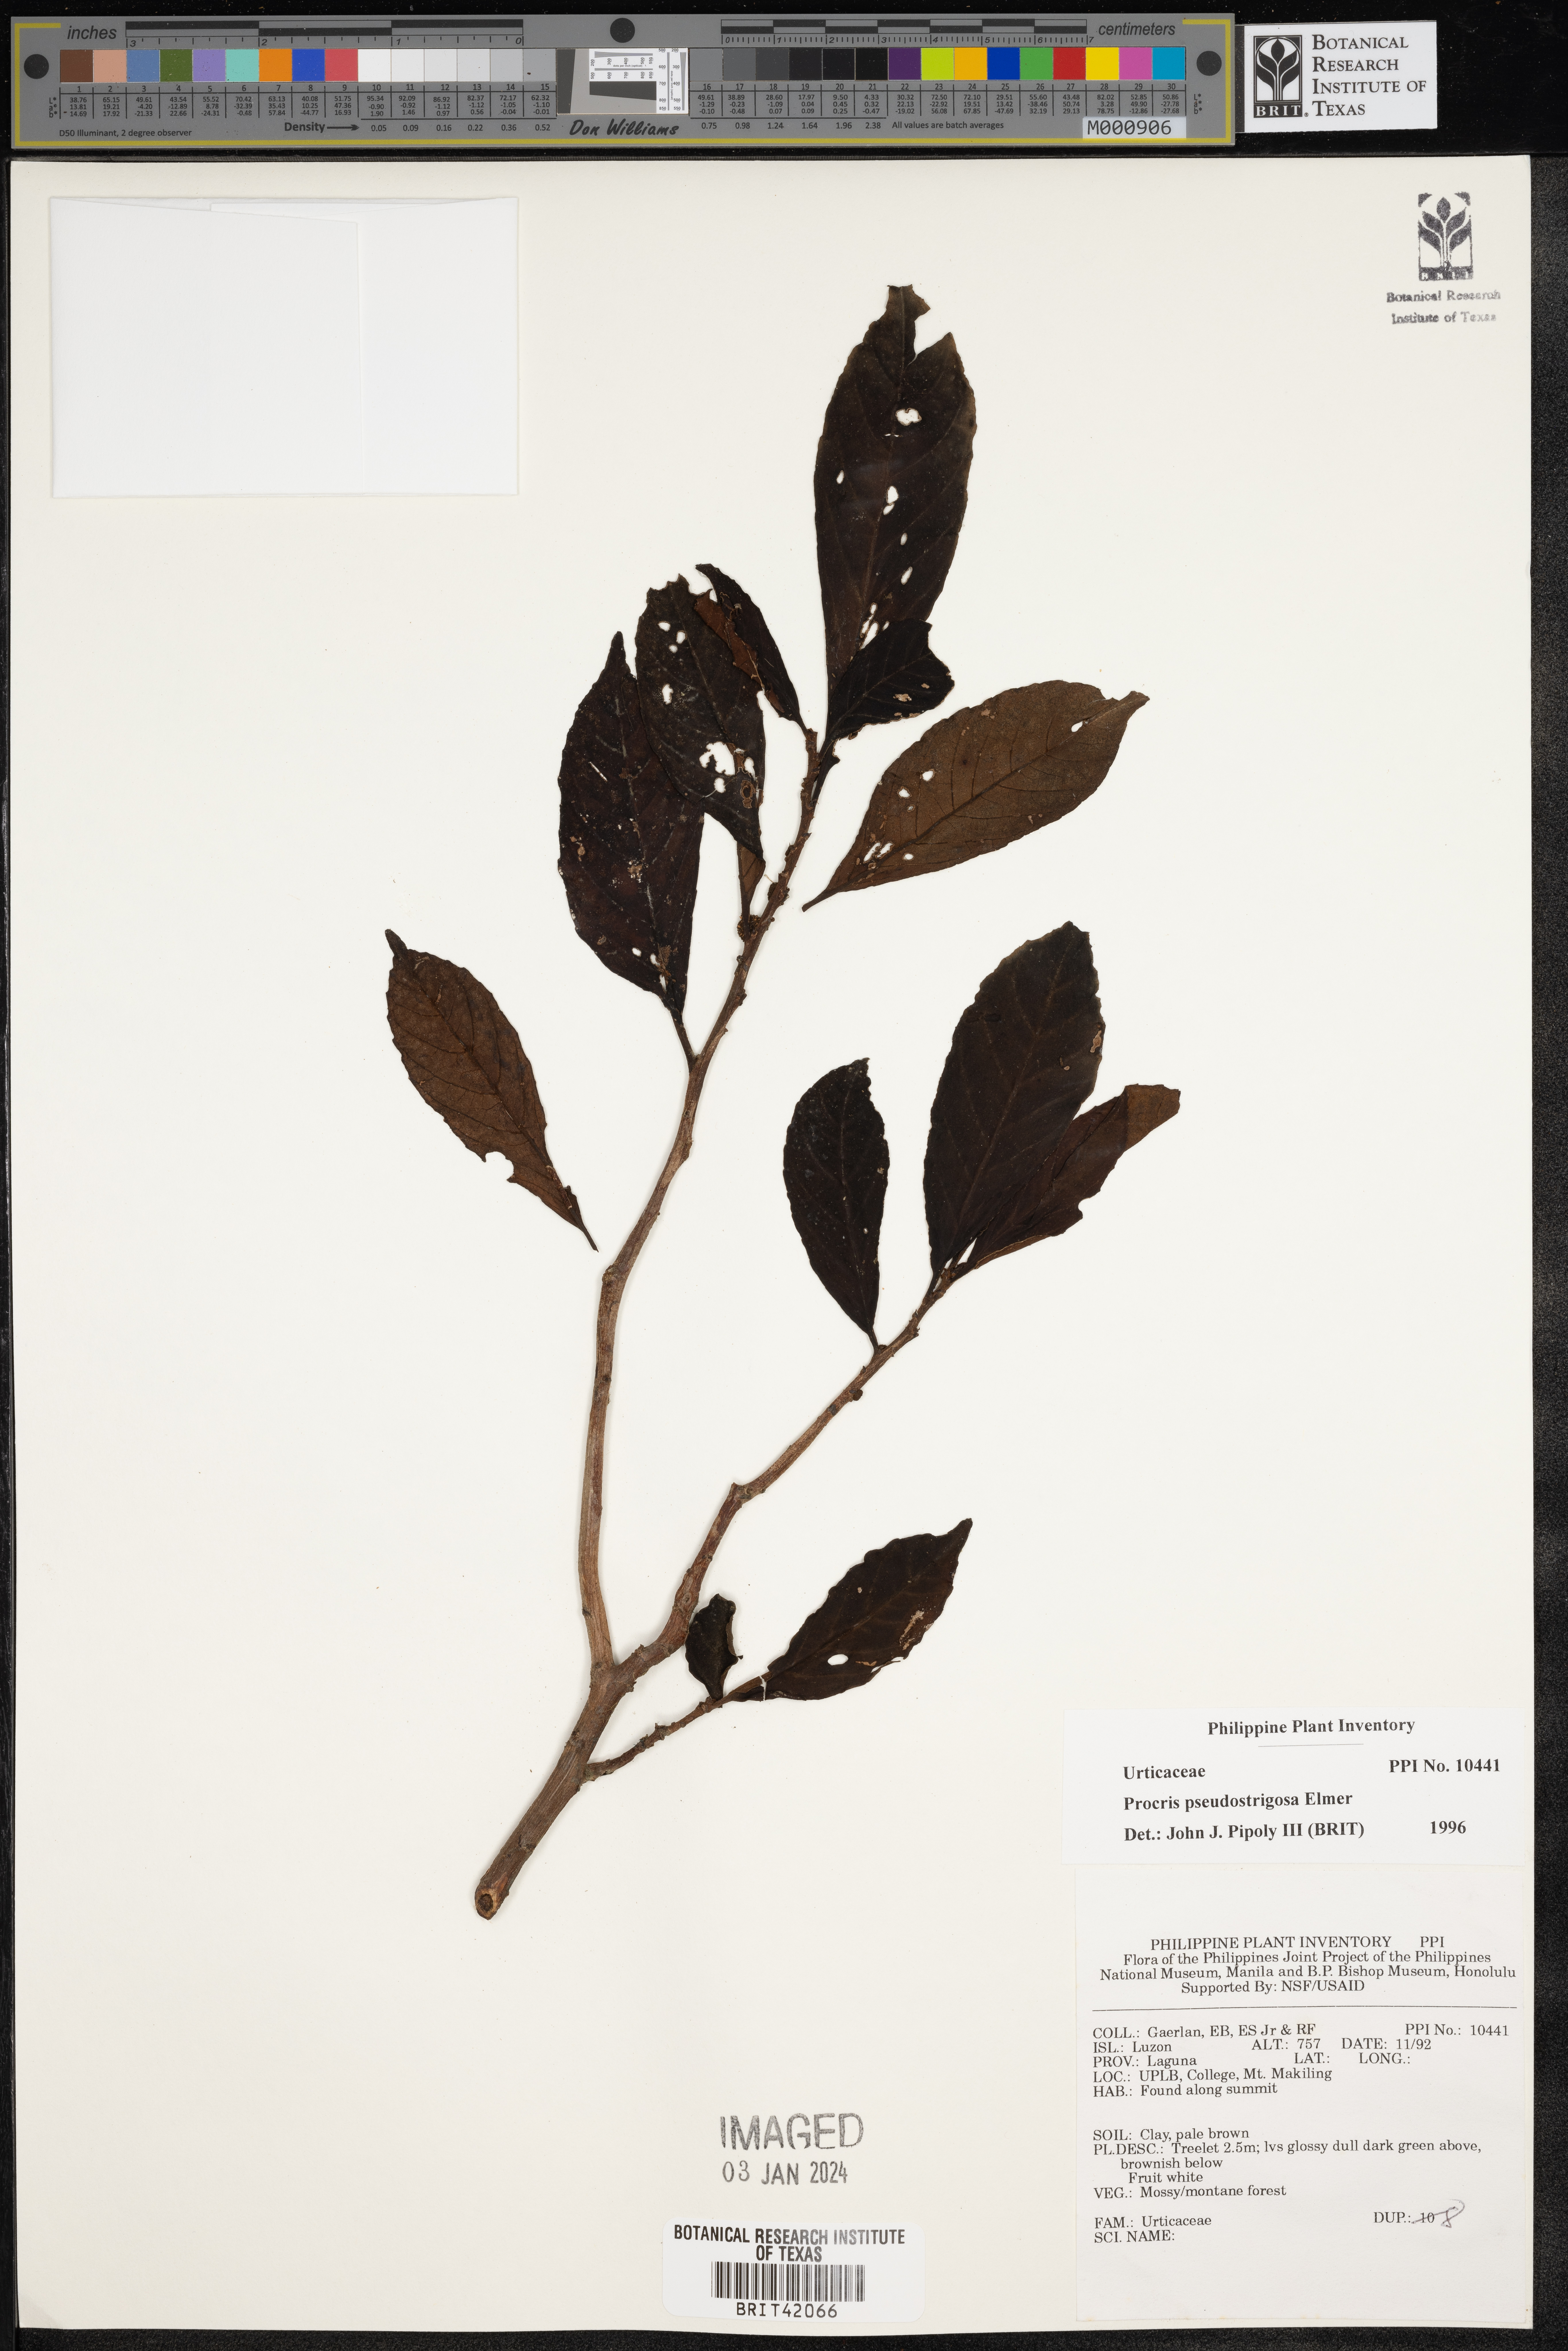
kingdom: Plantae
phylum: Tracheophyta
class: Magnoliopsida
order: Rosales
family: Urticaceae
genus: Procris
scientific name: Procris frutescens
